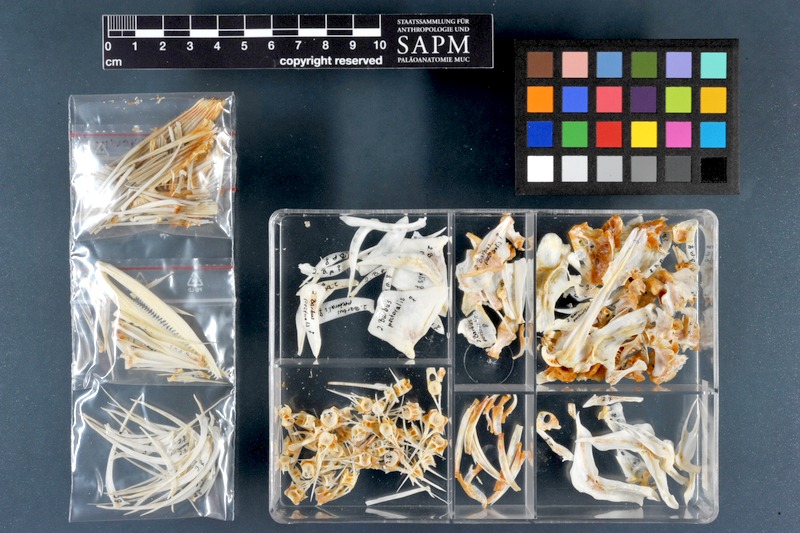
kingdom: Animalia
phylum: Chordata
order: Cypriniformes
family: Cyprinidae
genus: Luciobarbus
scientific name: Luciobarbus pectoralis
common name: Levantine barbel
